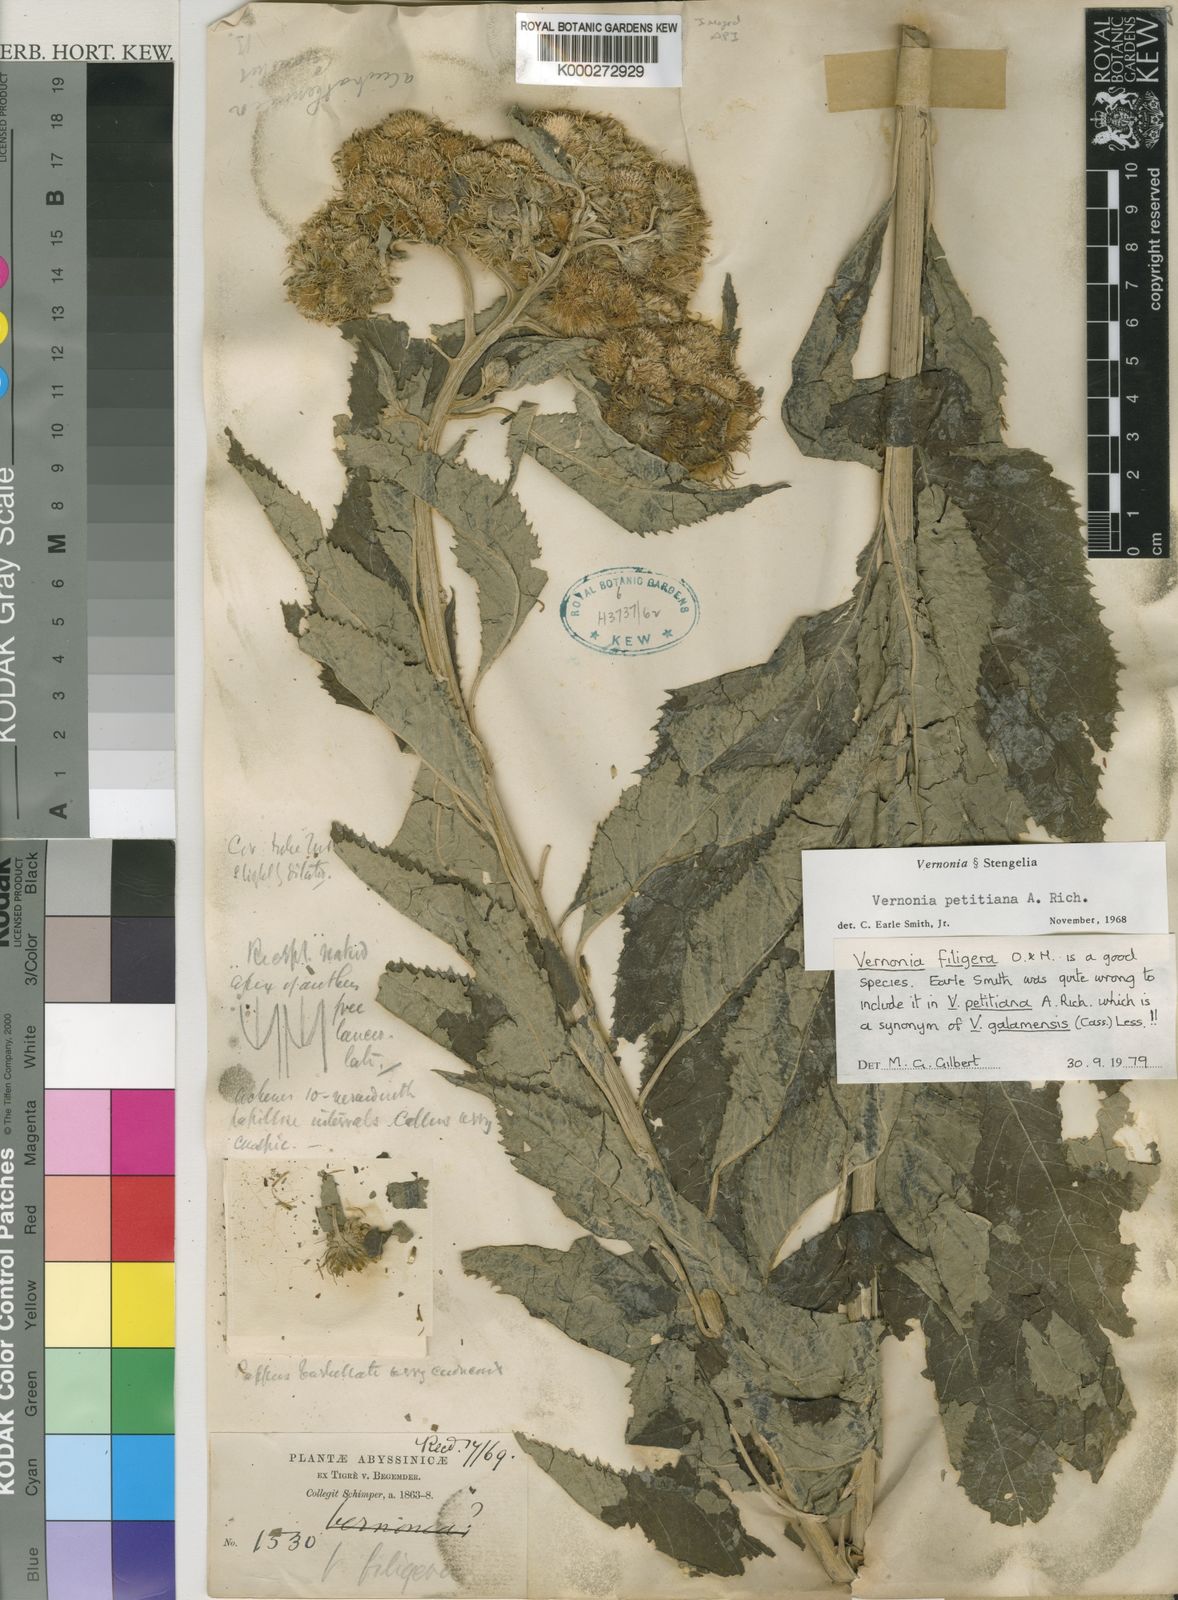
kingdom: Plantae
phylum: Tracheophyta
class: Magnoliopsida
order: Asterales
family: Asteraceae
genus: Vernonia
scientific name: Vernonia galamensis
